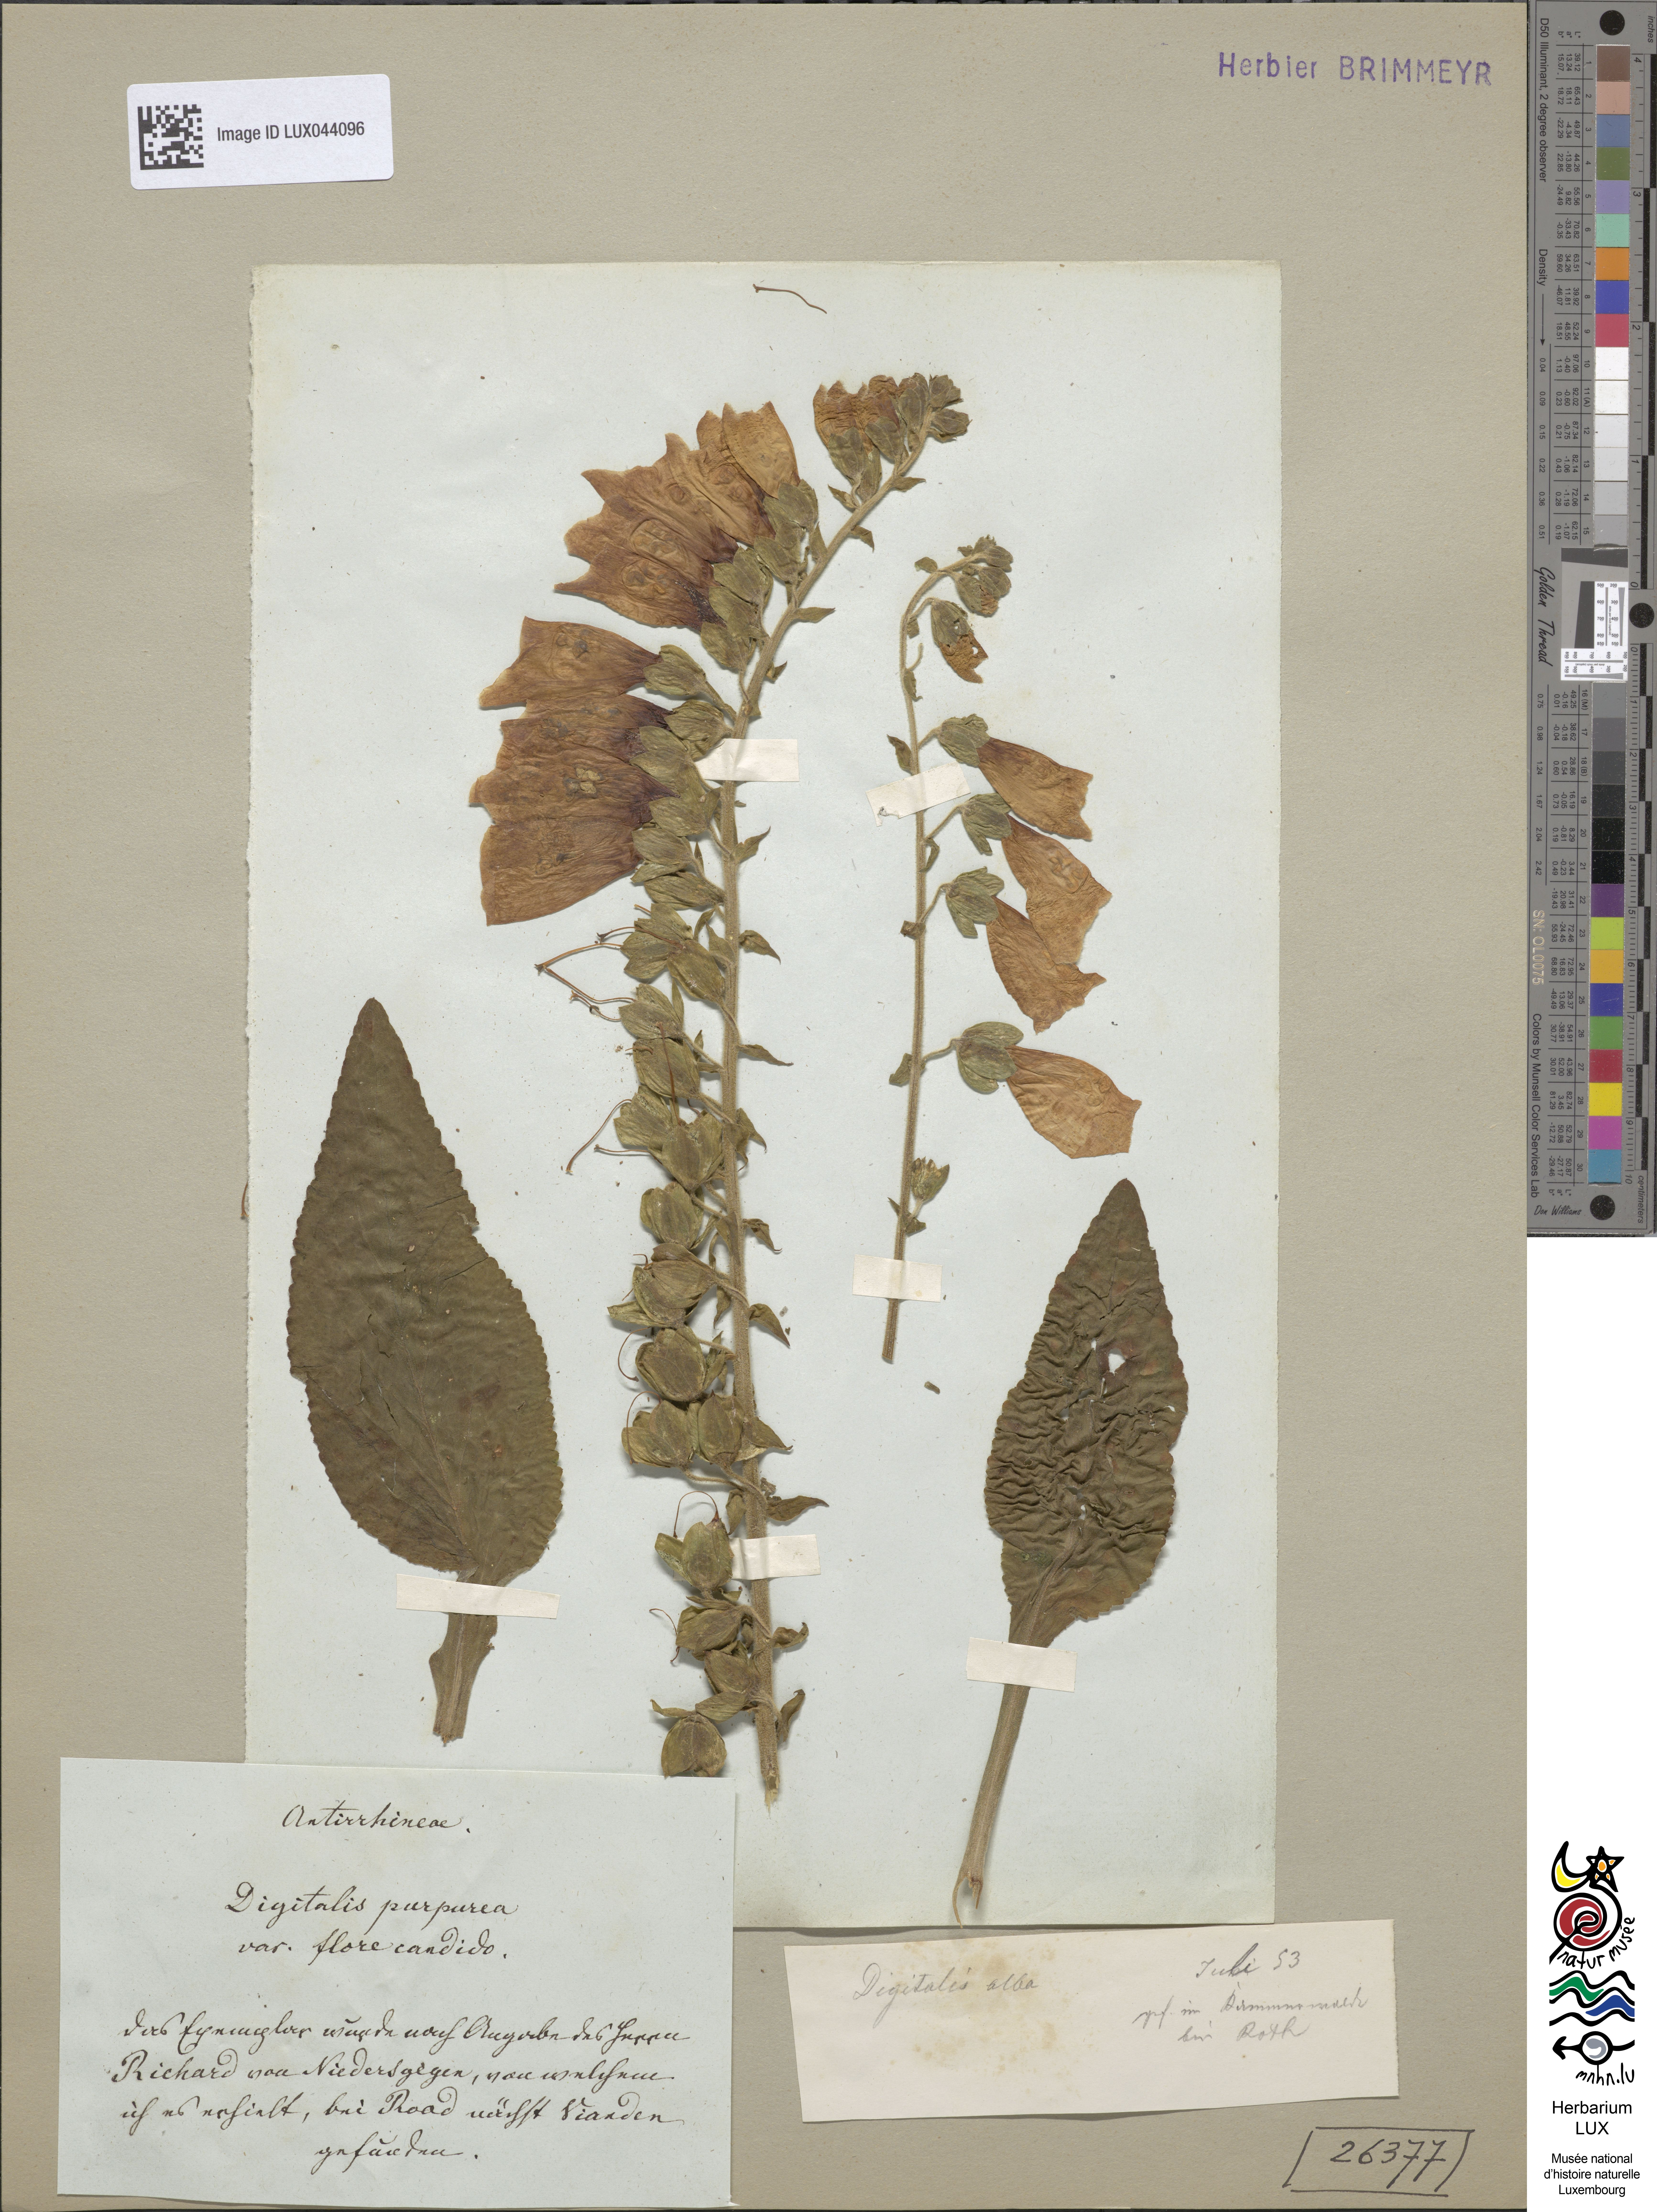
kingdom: Plantae
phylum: Tracheophyta
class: Magnoliopsida
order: Lamiales
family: Plantaginaceae
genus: Digitalis
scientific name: Digitalis purpurea
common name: Foxglove
